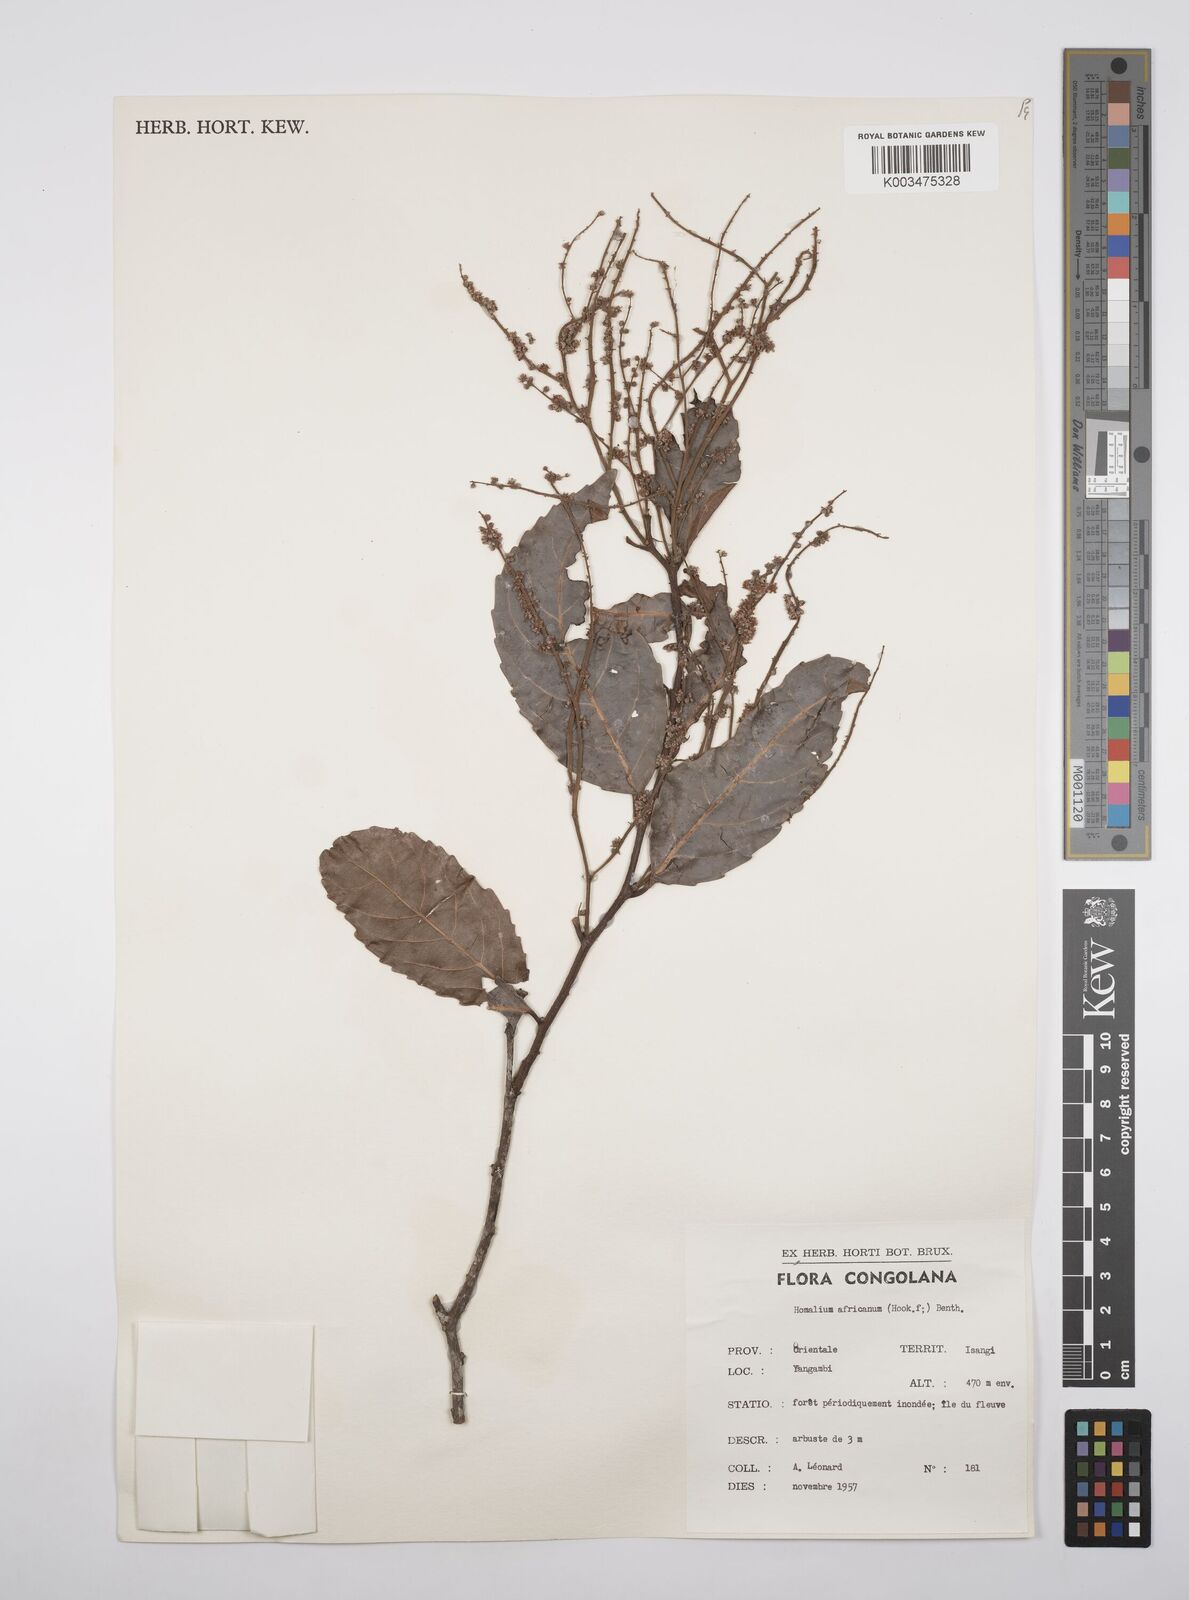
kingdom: Plantae
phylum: Tracheophyta
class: Magnoliopsida
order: Malpighiales
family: Salicaceae
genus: Homalium
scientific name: Homalium africanum
